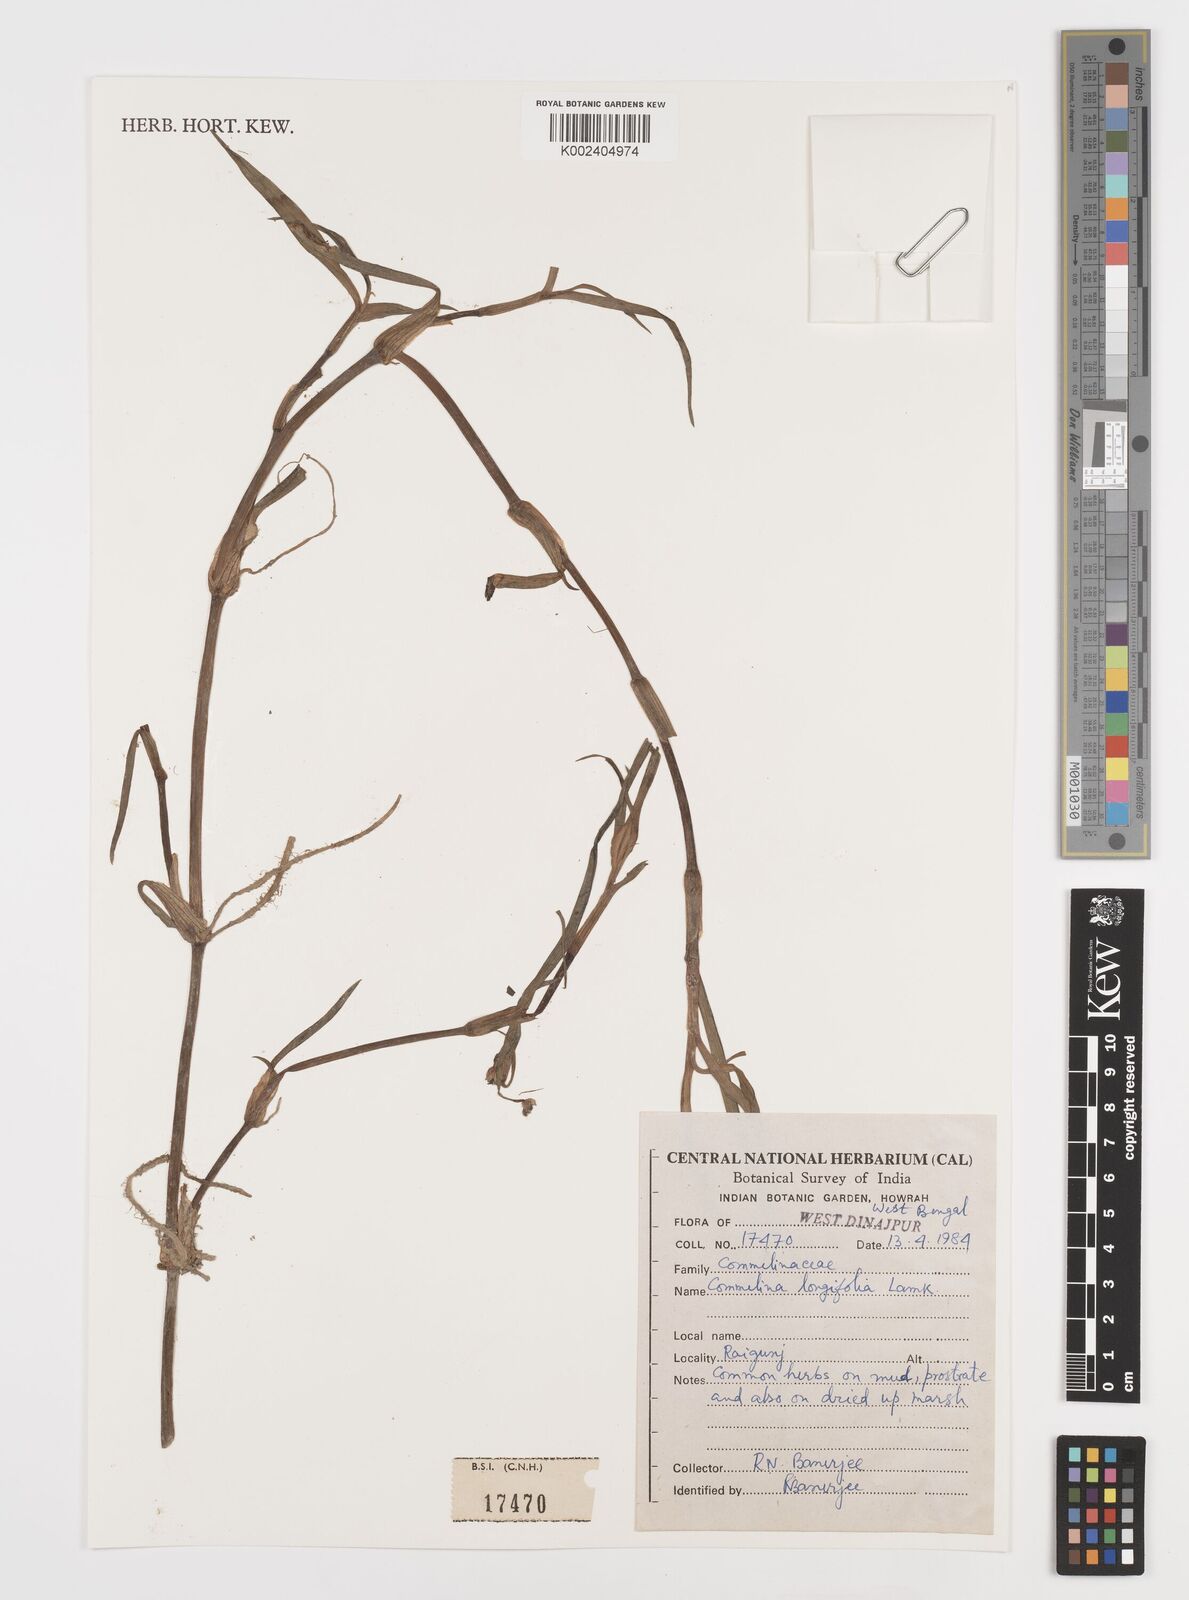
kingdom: Plantae
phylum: Tracheophyta
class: Liliopsida
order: Commelinales
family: Commelinaceae
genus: Commelina
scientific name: Commelina undulata
